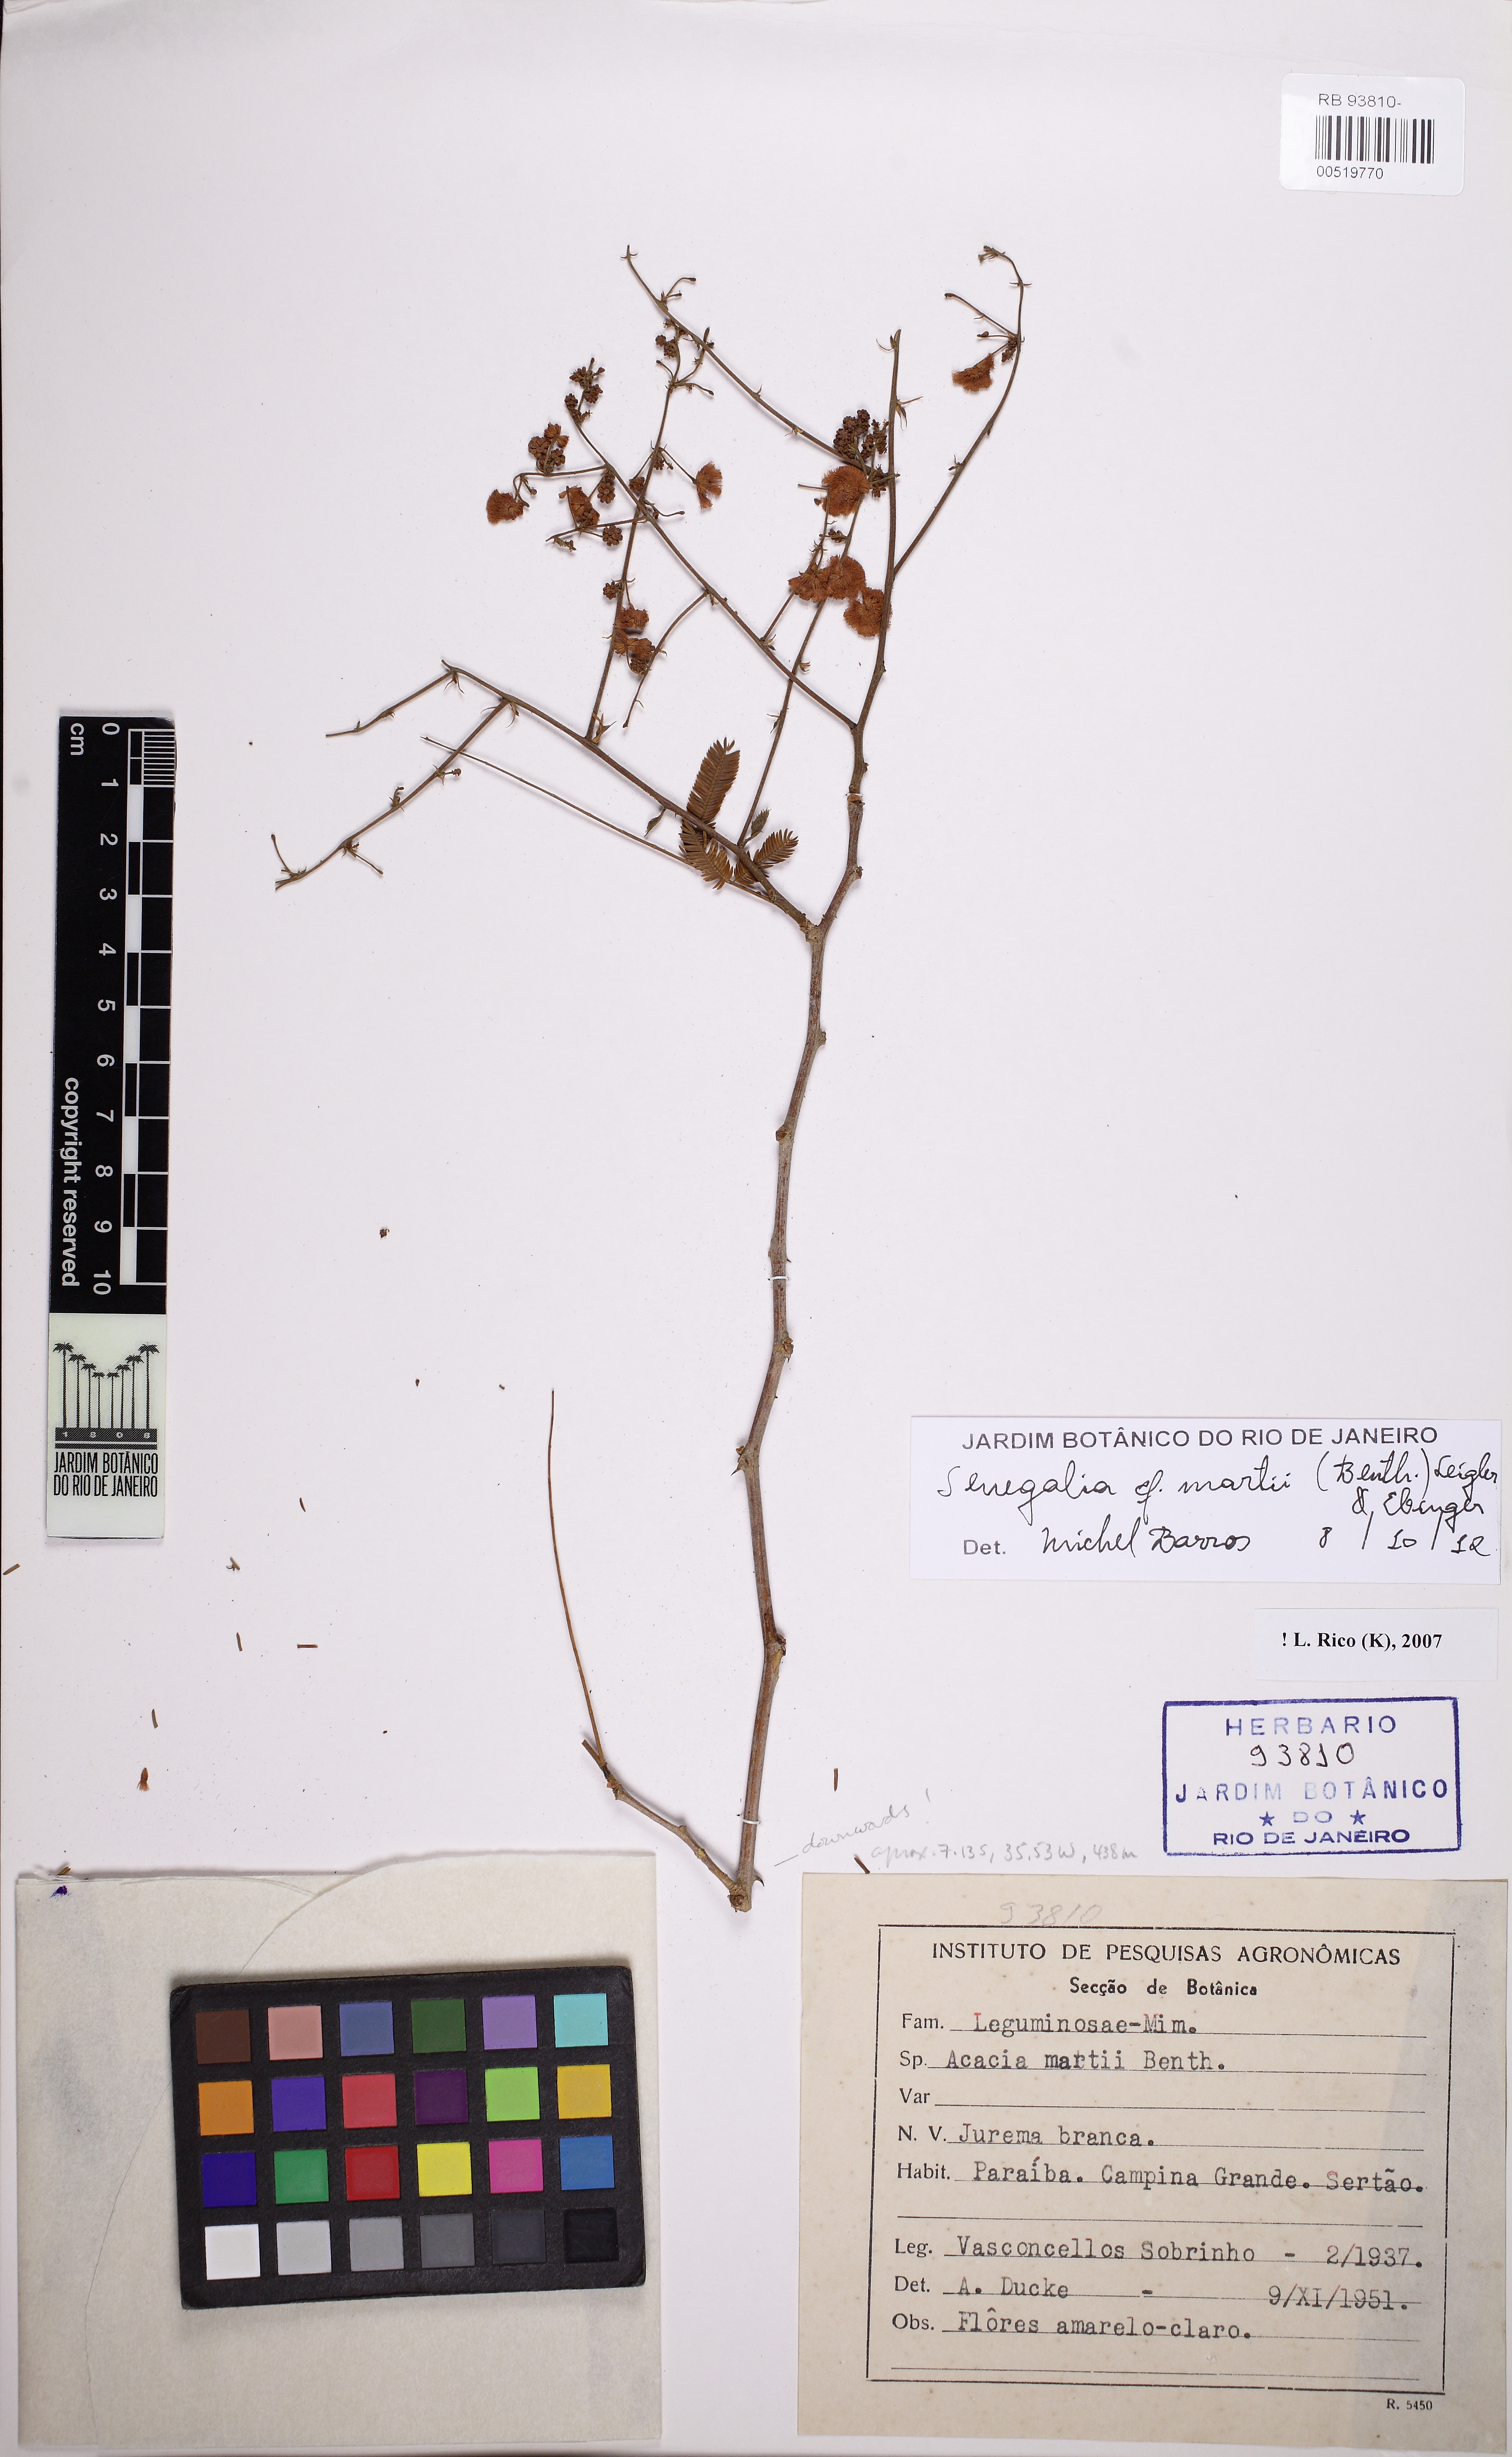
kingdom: Plantae
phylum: Tracheophyta
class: Magnoliopsida
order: Fabales
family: Fabaceae
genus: Senegalia
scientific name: Senegalia martii
